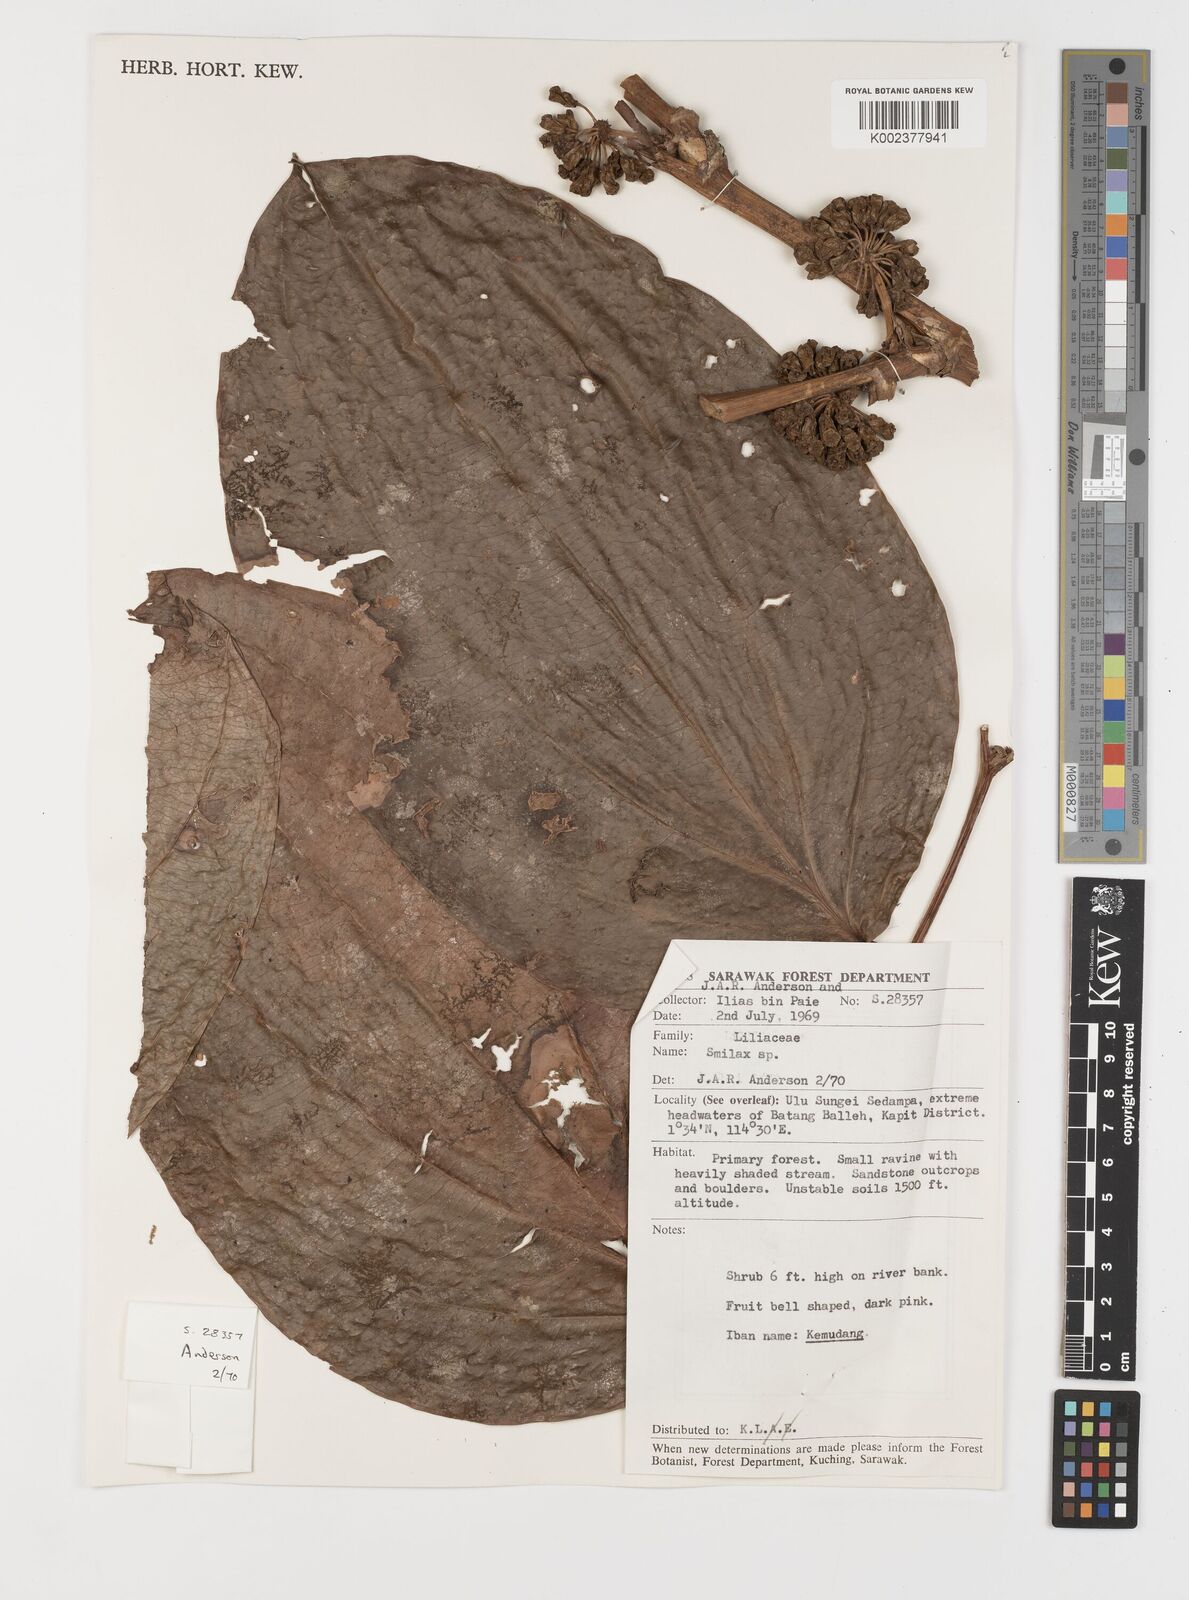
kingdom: Plantae
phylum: Tracheophyta
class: Liliopsida
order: Liliales
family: Smilacaceae
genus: Smilax
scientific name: Smilax
